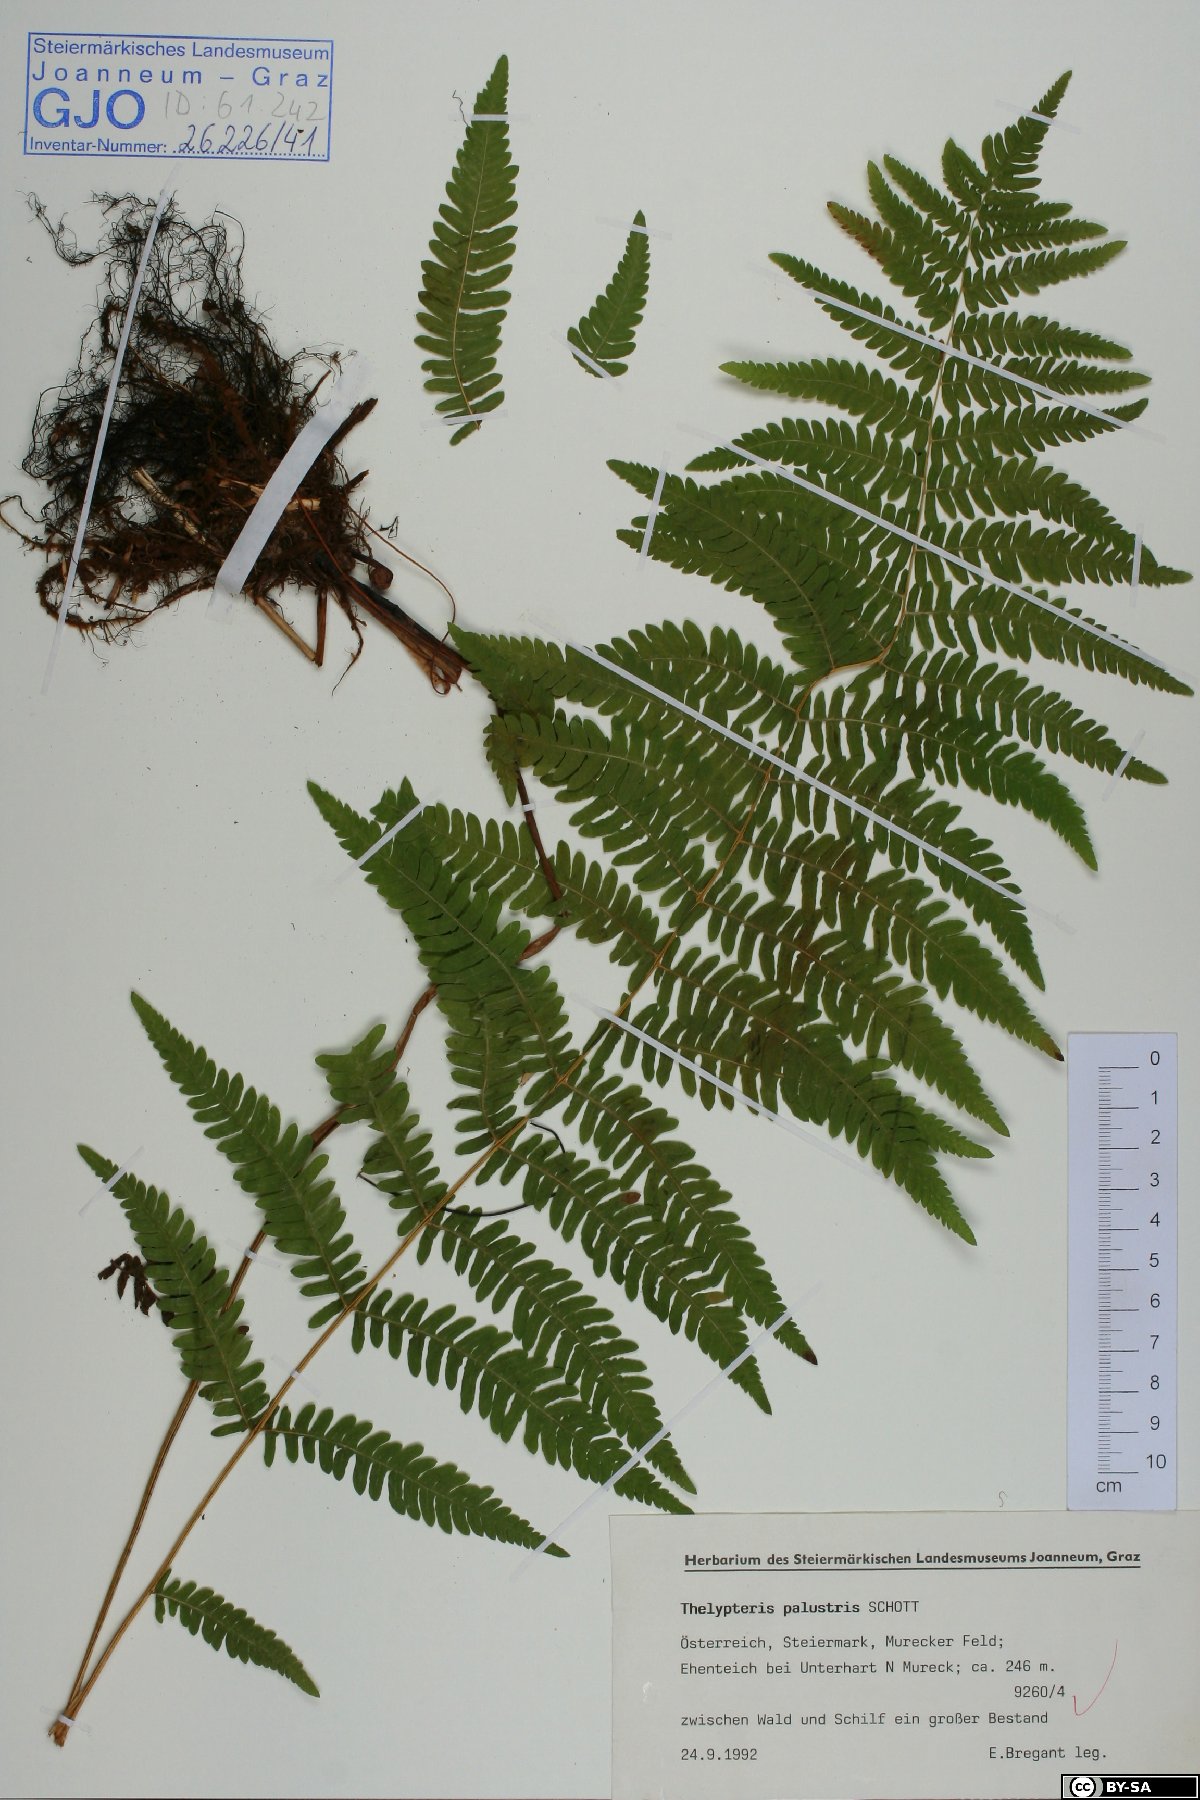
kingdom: Plantae
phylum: Tracheophyta
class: Polypodiopsida
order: Polypodiales
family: Thelypteridaceae
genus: Thelypteris
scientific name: Thelypteris palustris
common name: Marsh fern
